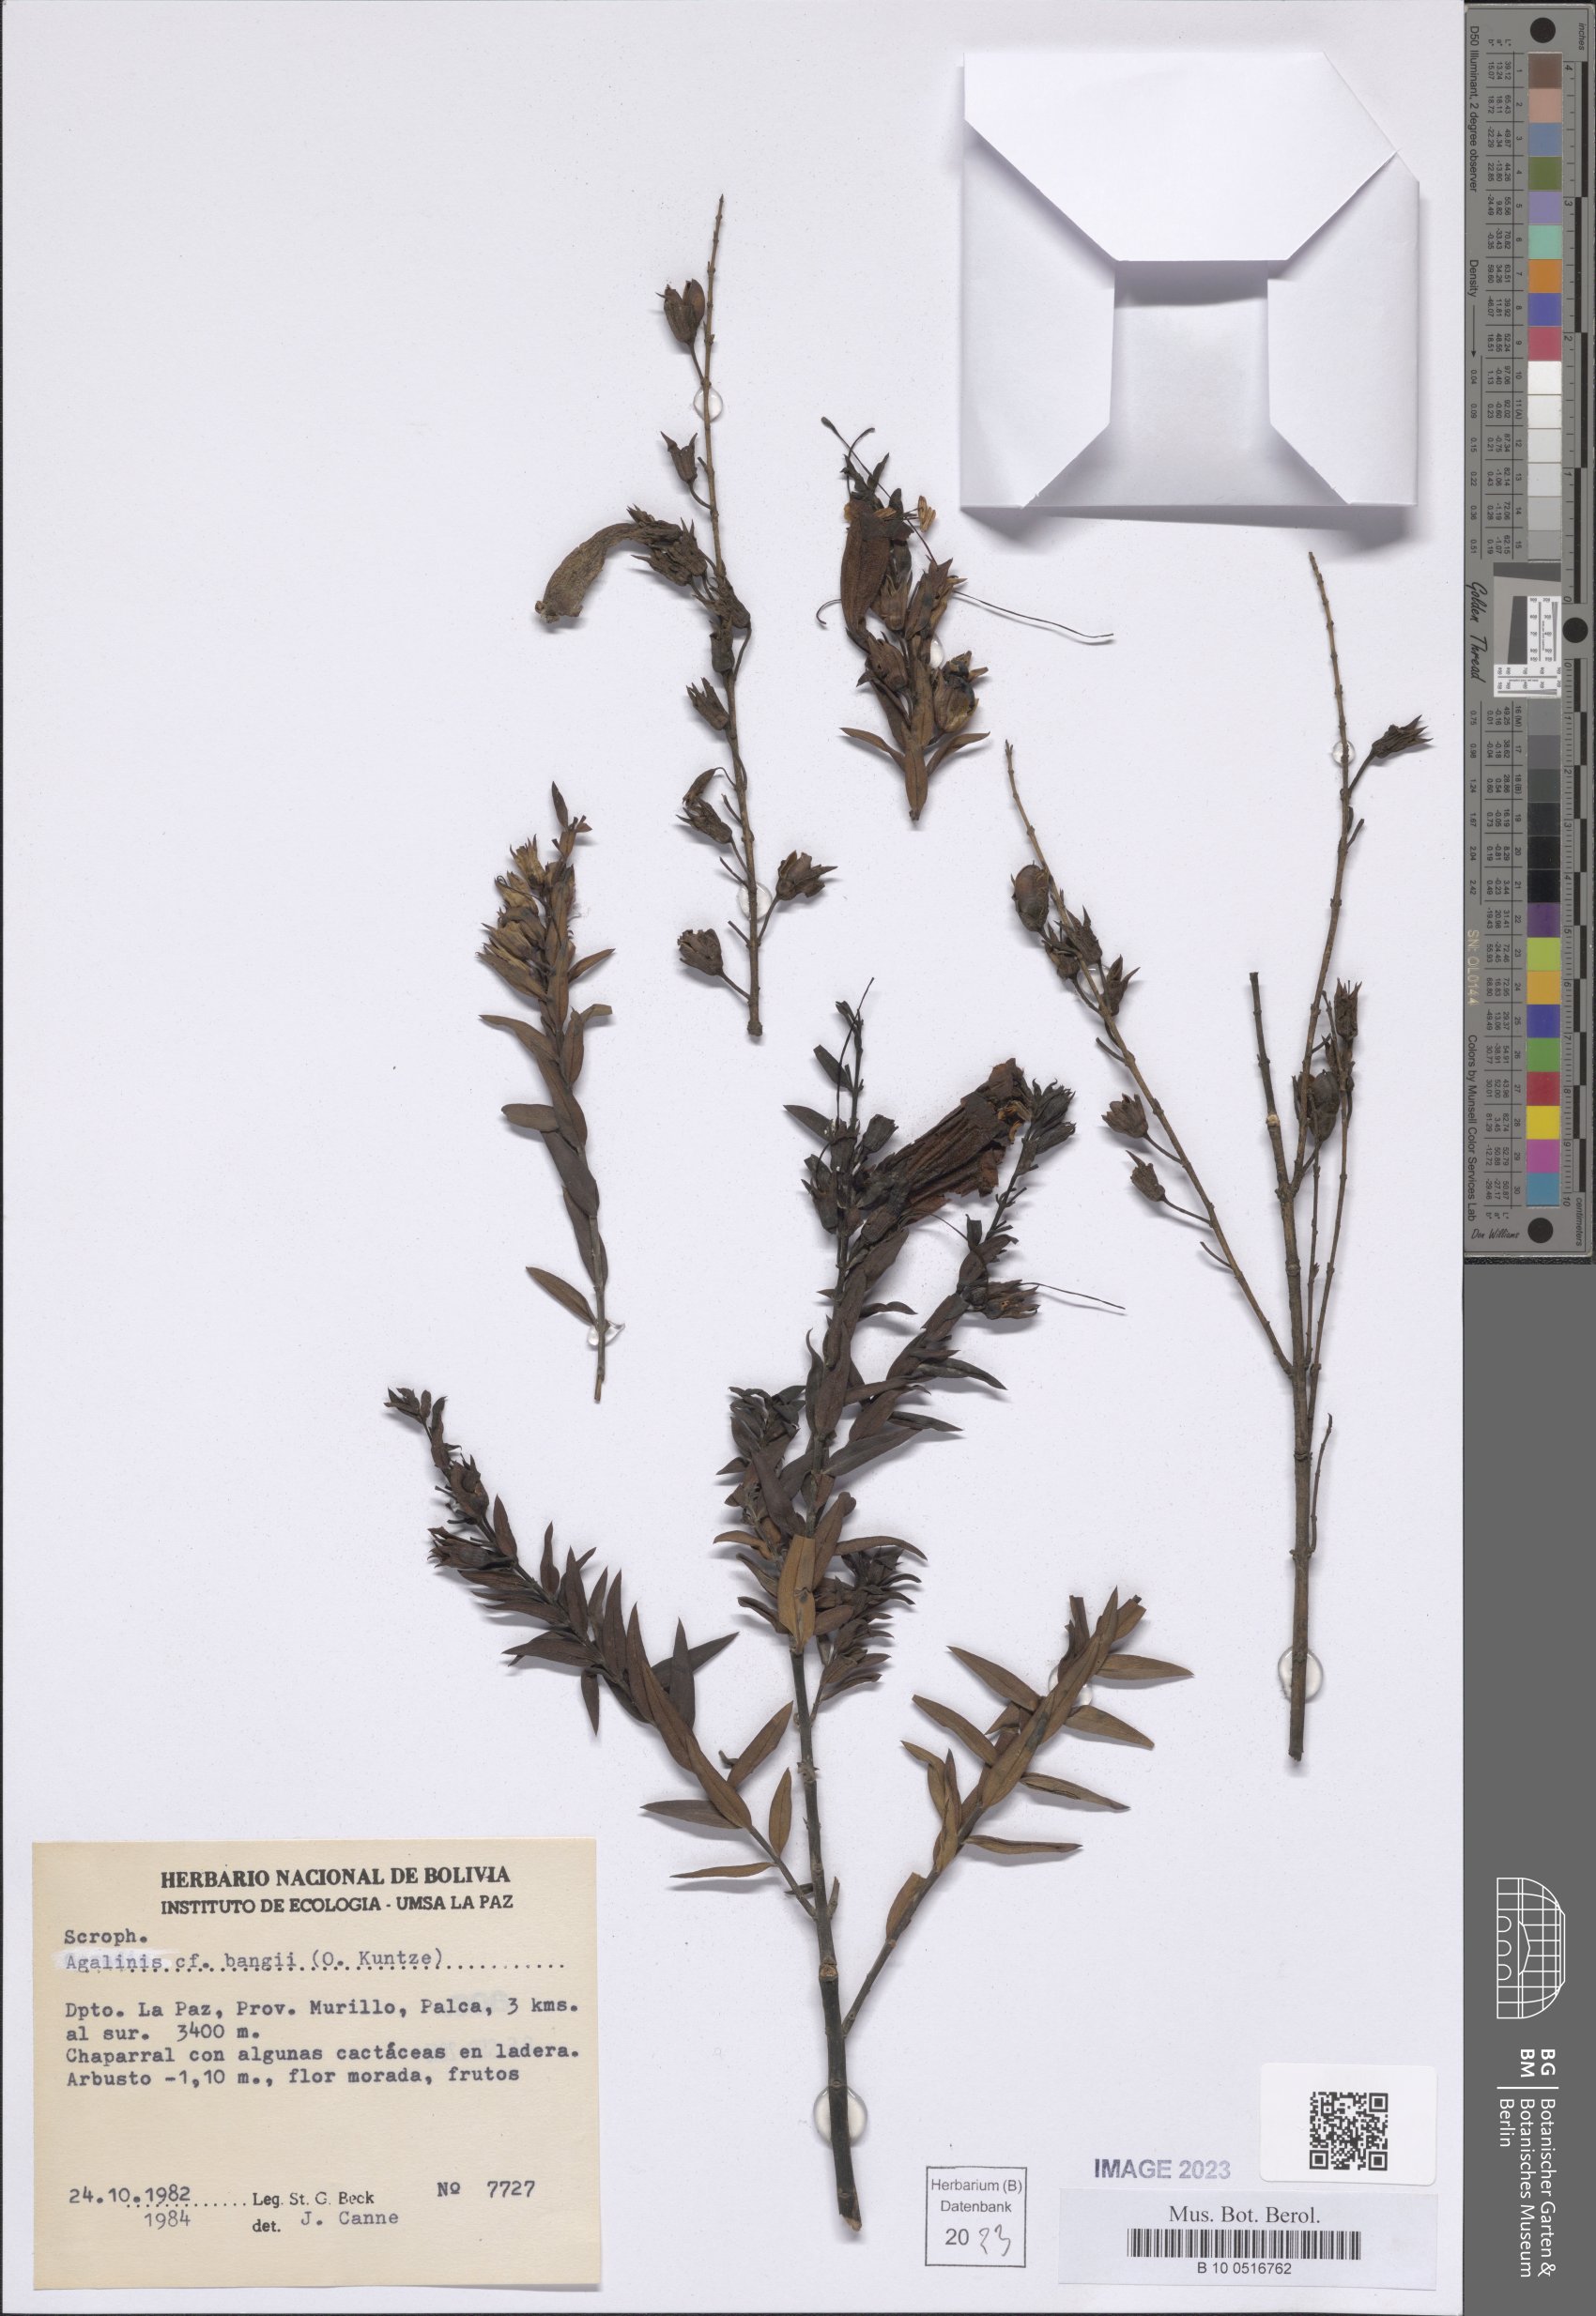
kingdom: Plantae
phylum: Tracheophyta
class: Magnoliopsida
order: Lamiales
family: Orobanchaceae
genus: Agalinis
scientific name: Agalinis bangii
